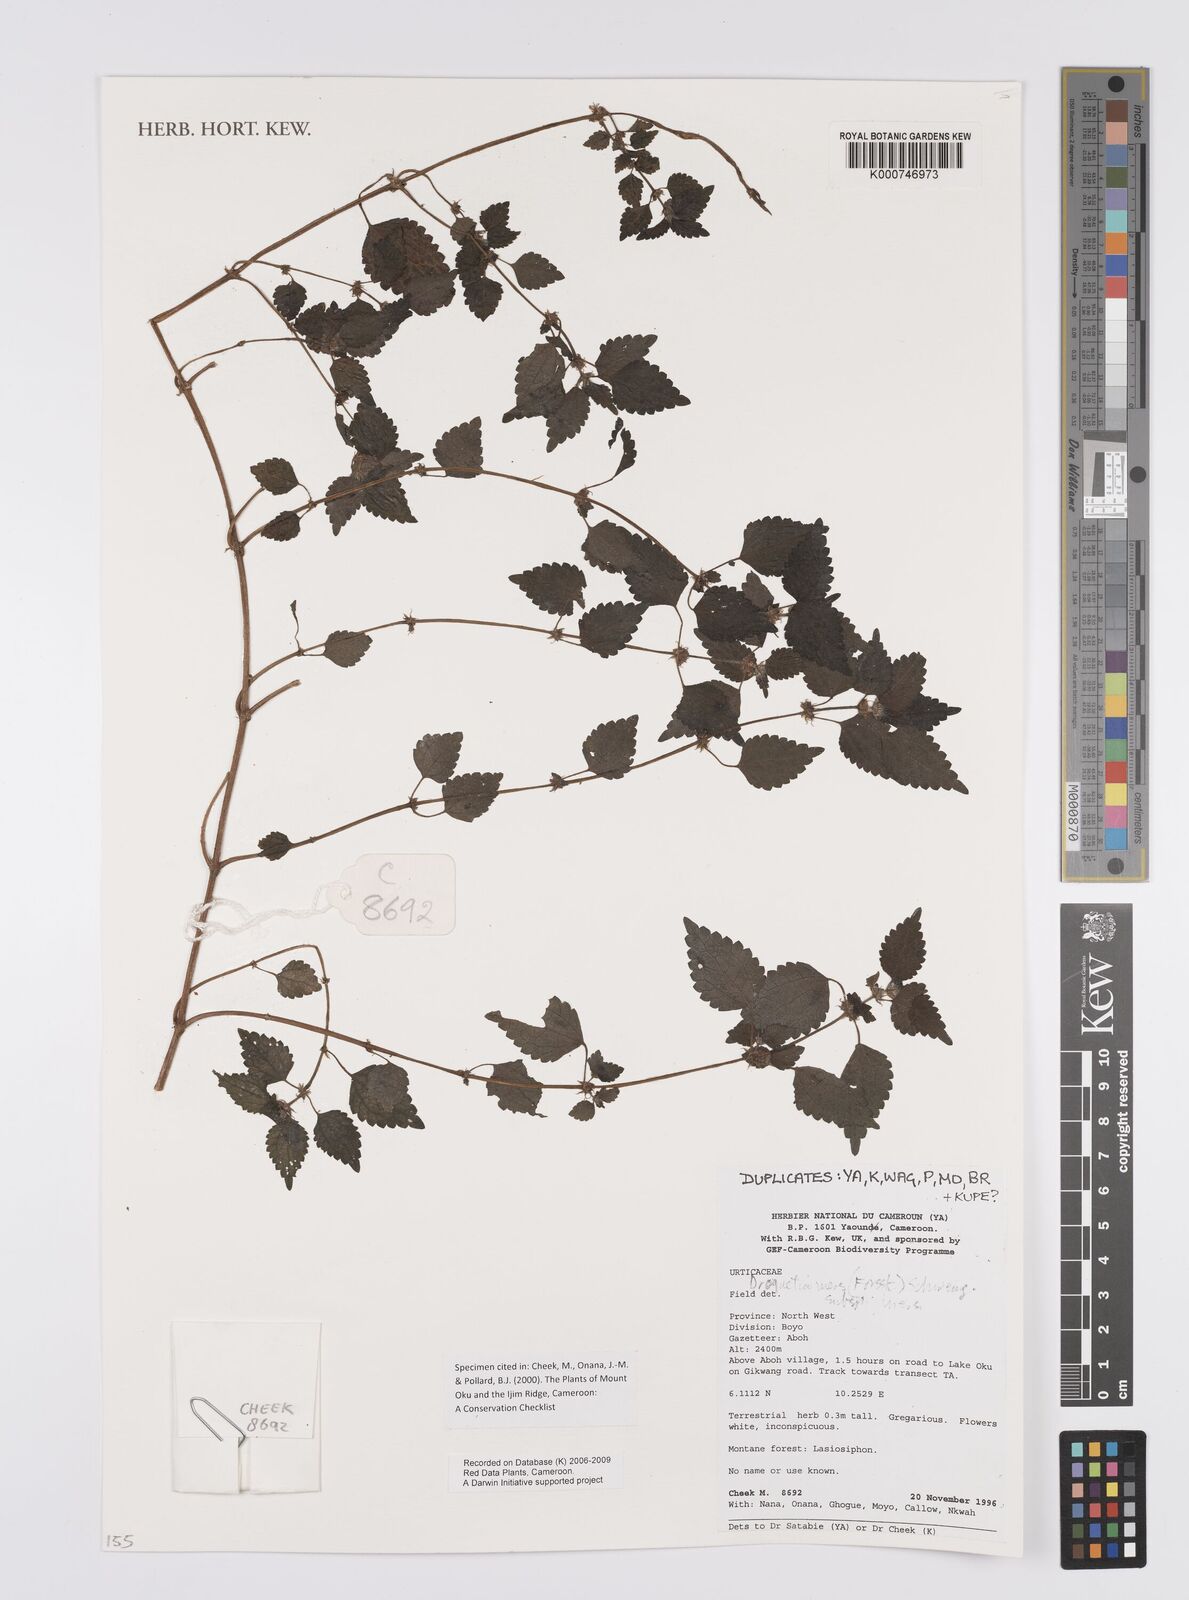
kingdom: Plantae
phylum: Tracheophyta
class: Magnoliopsida
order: Rosales
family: Urticaceae
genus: Droguetia
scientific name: Droguetia iners
